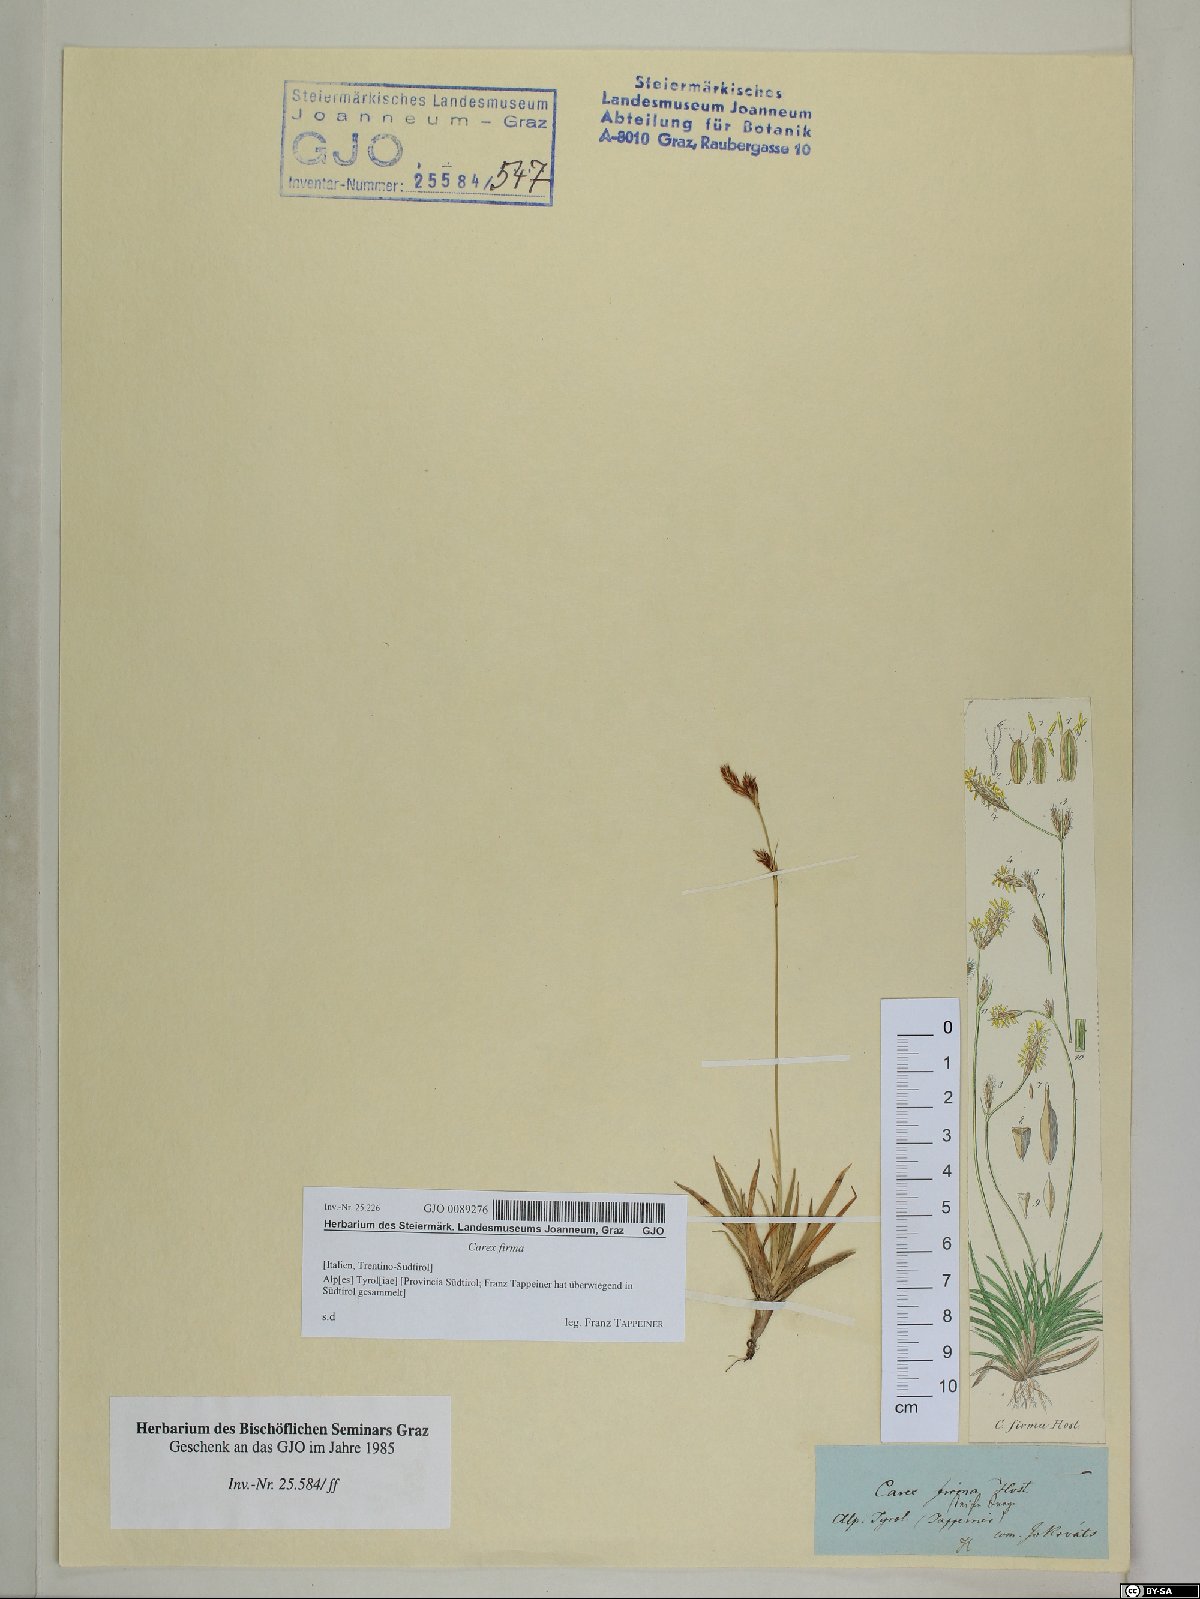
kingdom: Plantae
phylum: Tracheophyta
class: Liliopsida
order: Poales
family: Cyperaceae
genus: Carex
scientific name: Carex firma
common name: Dwarf pillow sedge
